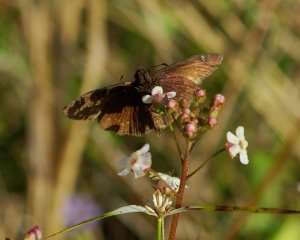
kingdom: Animalia
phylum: Arthropoda
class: Insecta
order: Lepidoptera
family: Hesperiidae
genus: Erynnis
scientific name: Erynnis zarucco
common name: Zarucco Duskywing
